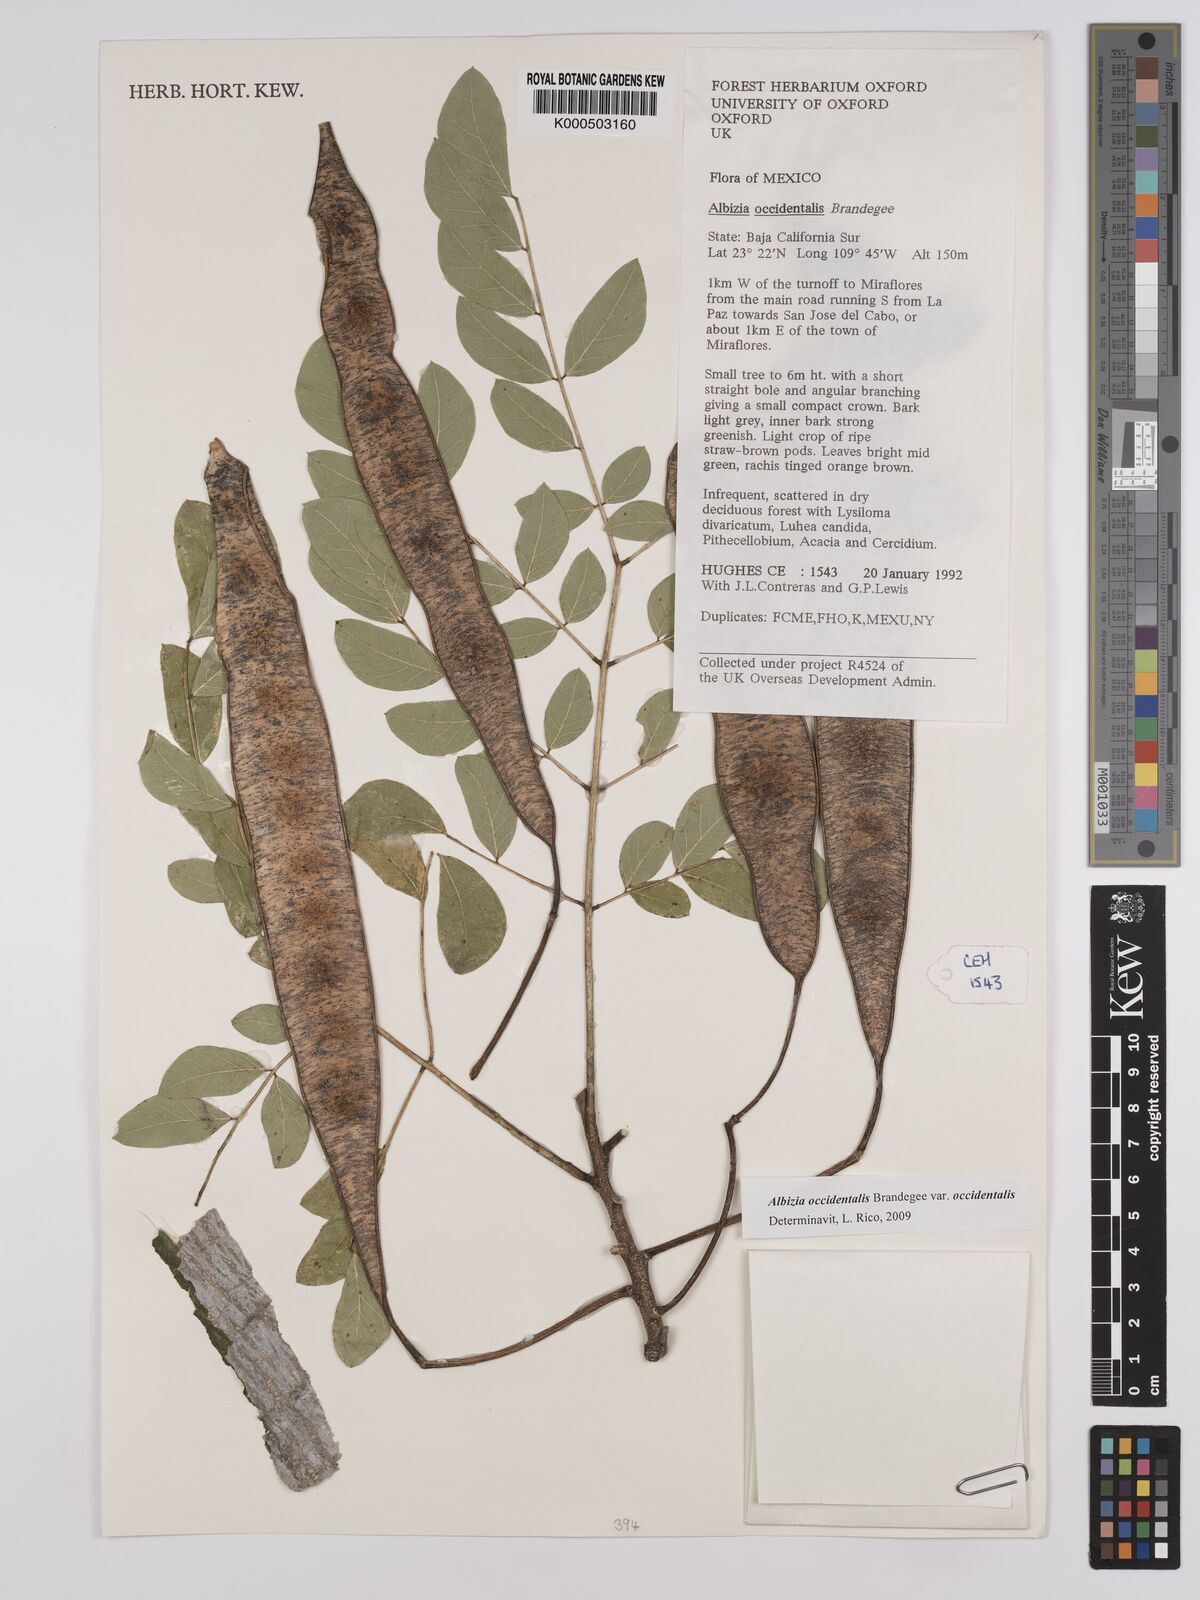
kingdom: Plantae
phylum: Tracheophyta
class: Magnoliopsida
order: Fabales
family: Fabaceae
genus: Albizia
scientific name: Albizia occidentalis
